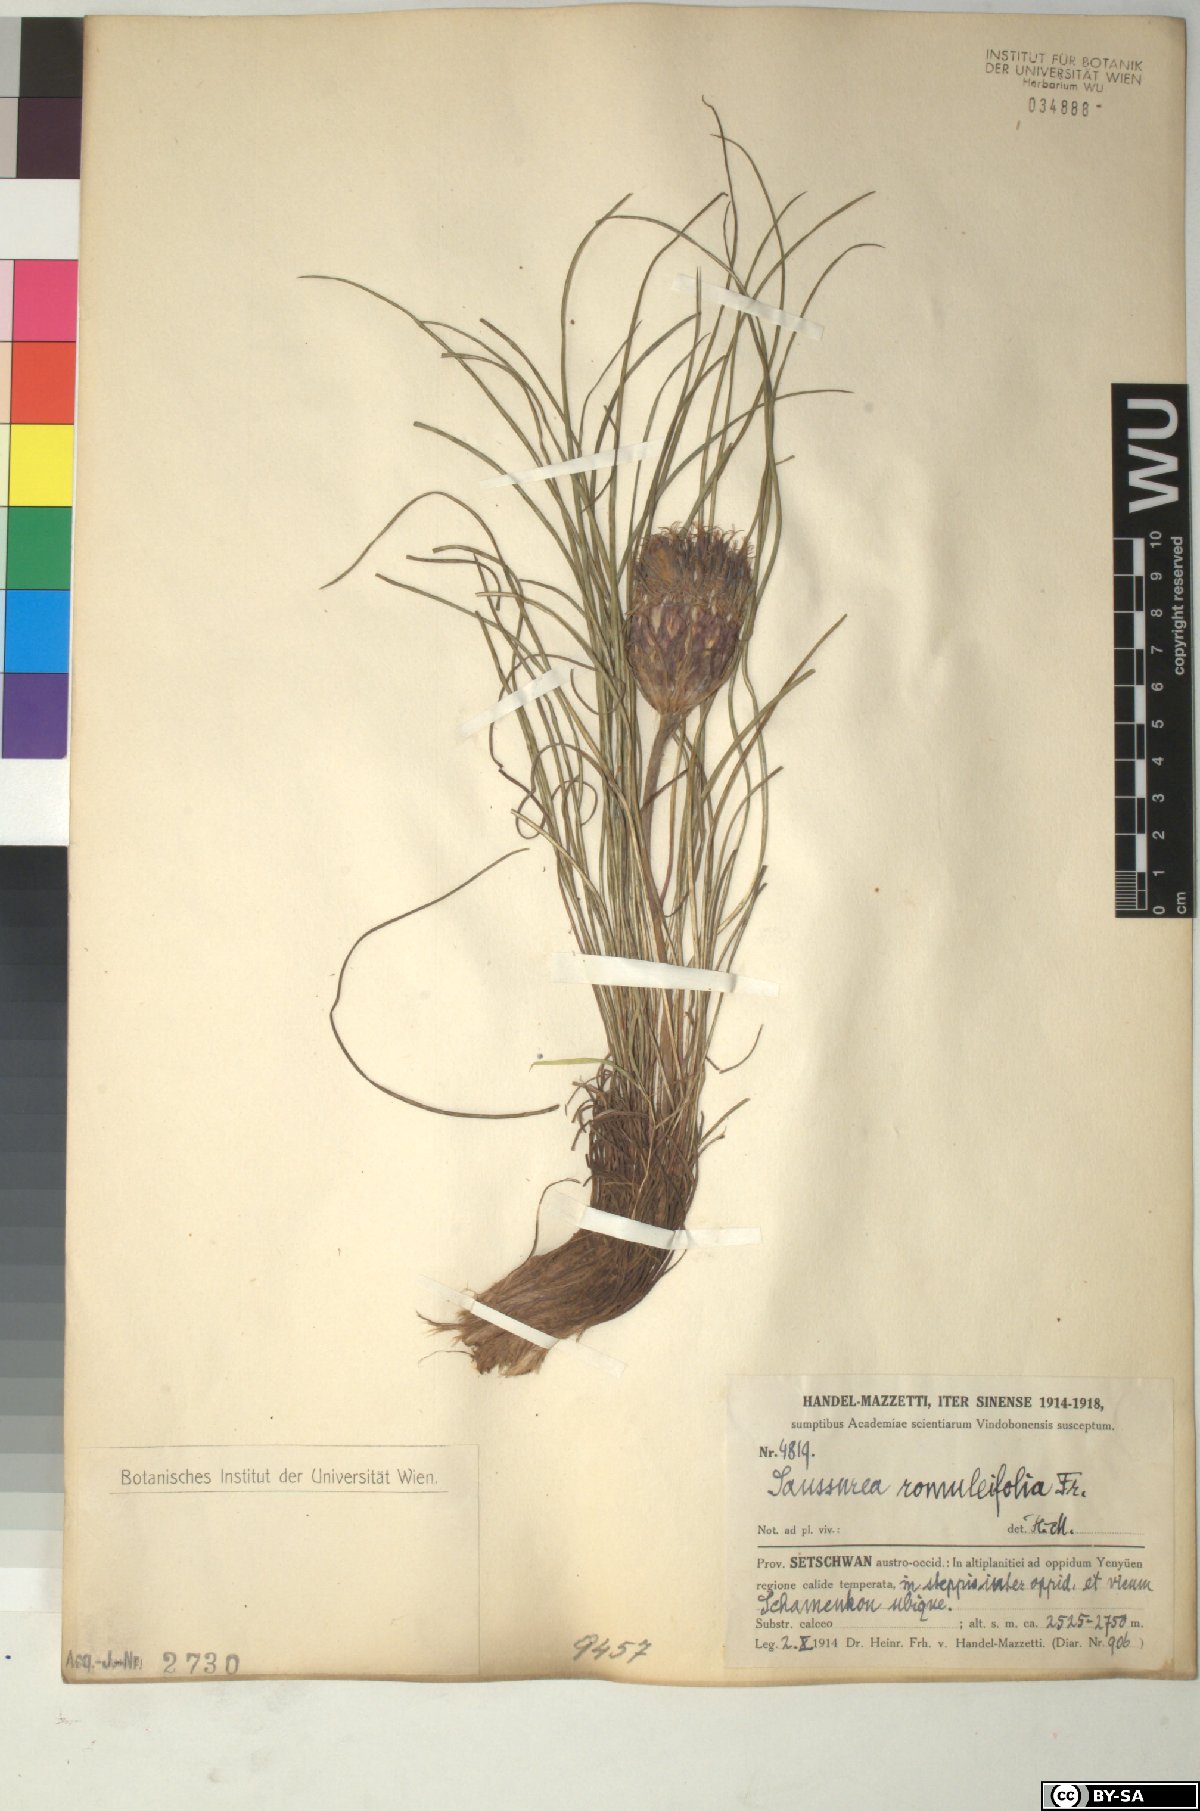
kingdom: Plantae
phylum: Tracheophyta
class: Magnoliopsida
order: Asterales
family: Asteraceae
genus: Saussurea
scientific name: Saussurea romuleifolia
